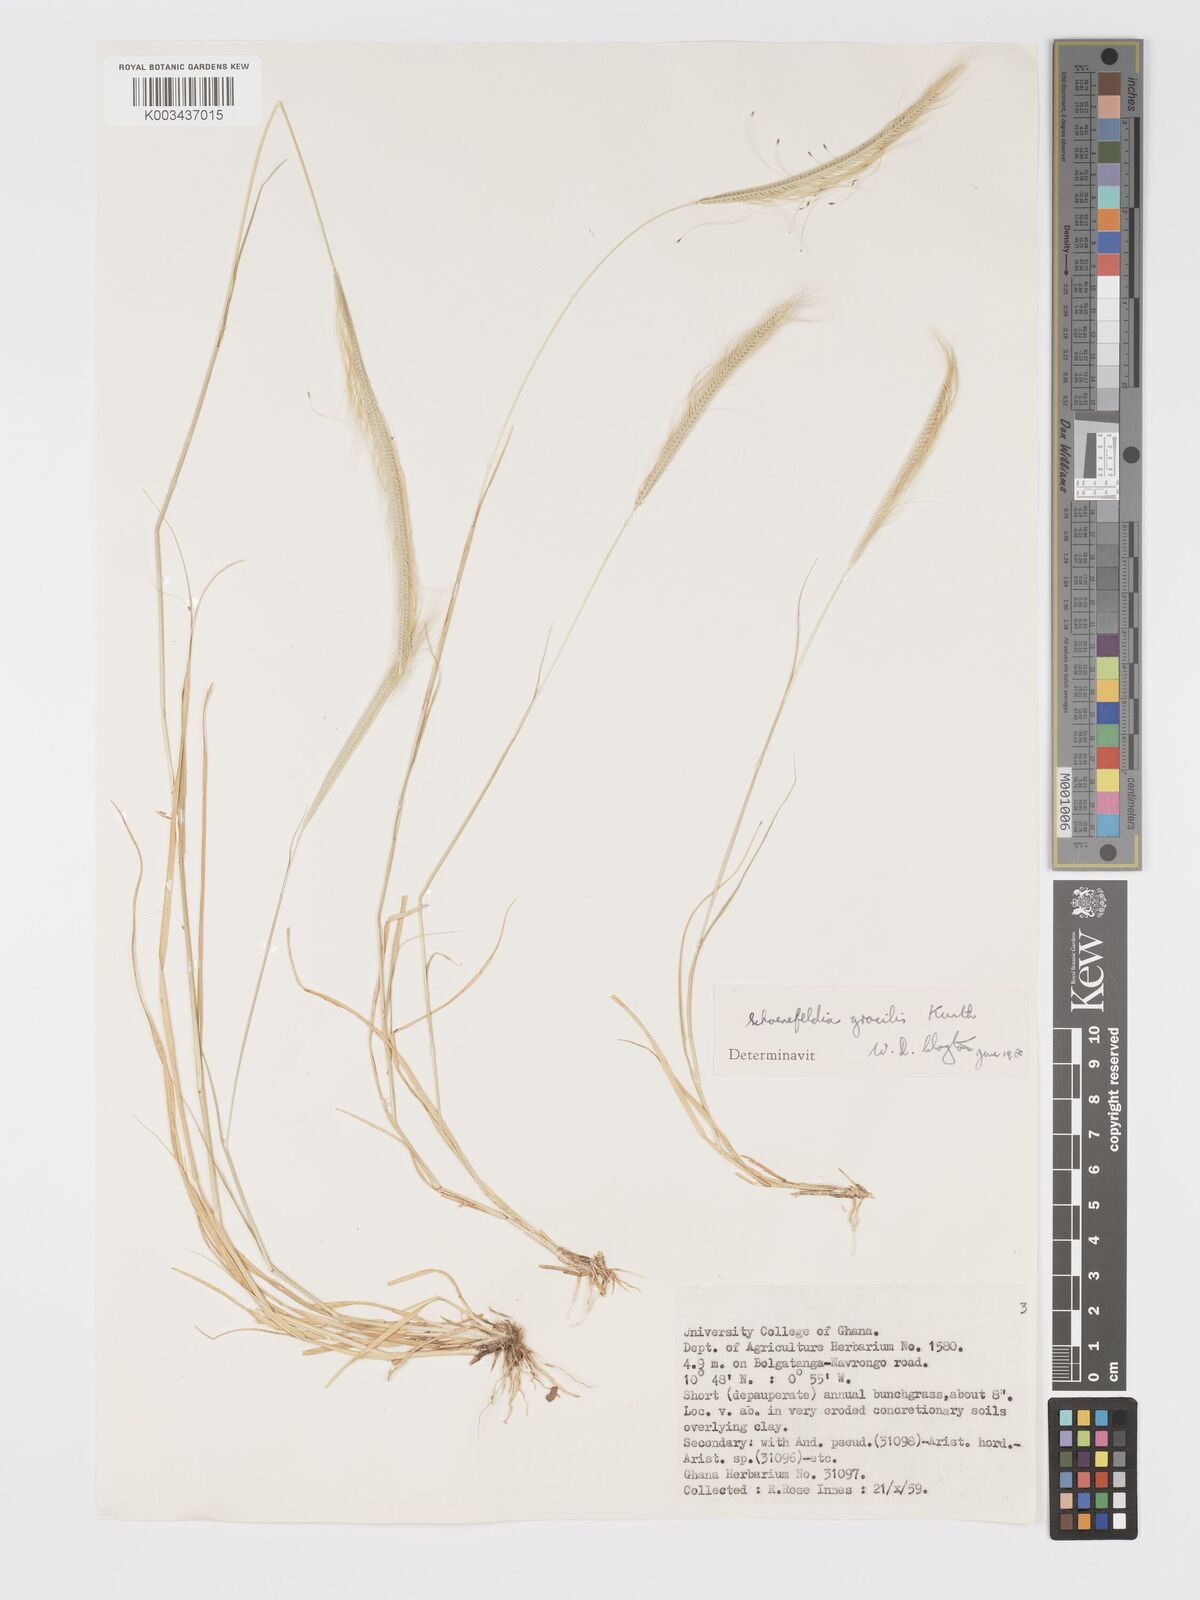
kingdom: Plantae
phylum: Tracheophyta
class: Liliopsida
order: Poales
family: Poaceae
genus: Schoenefeldia
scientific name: Schoenefeldia gracilis
